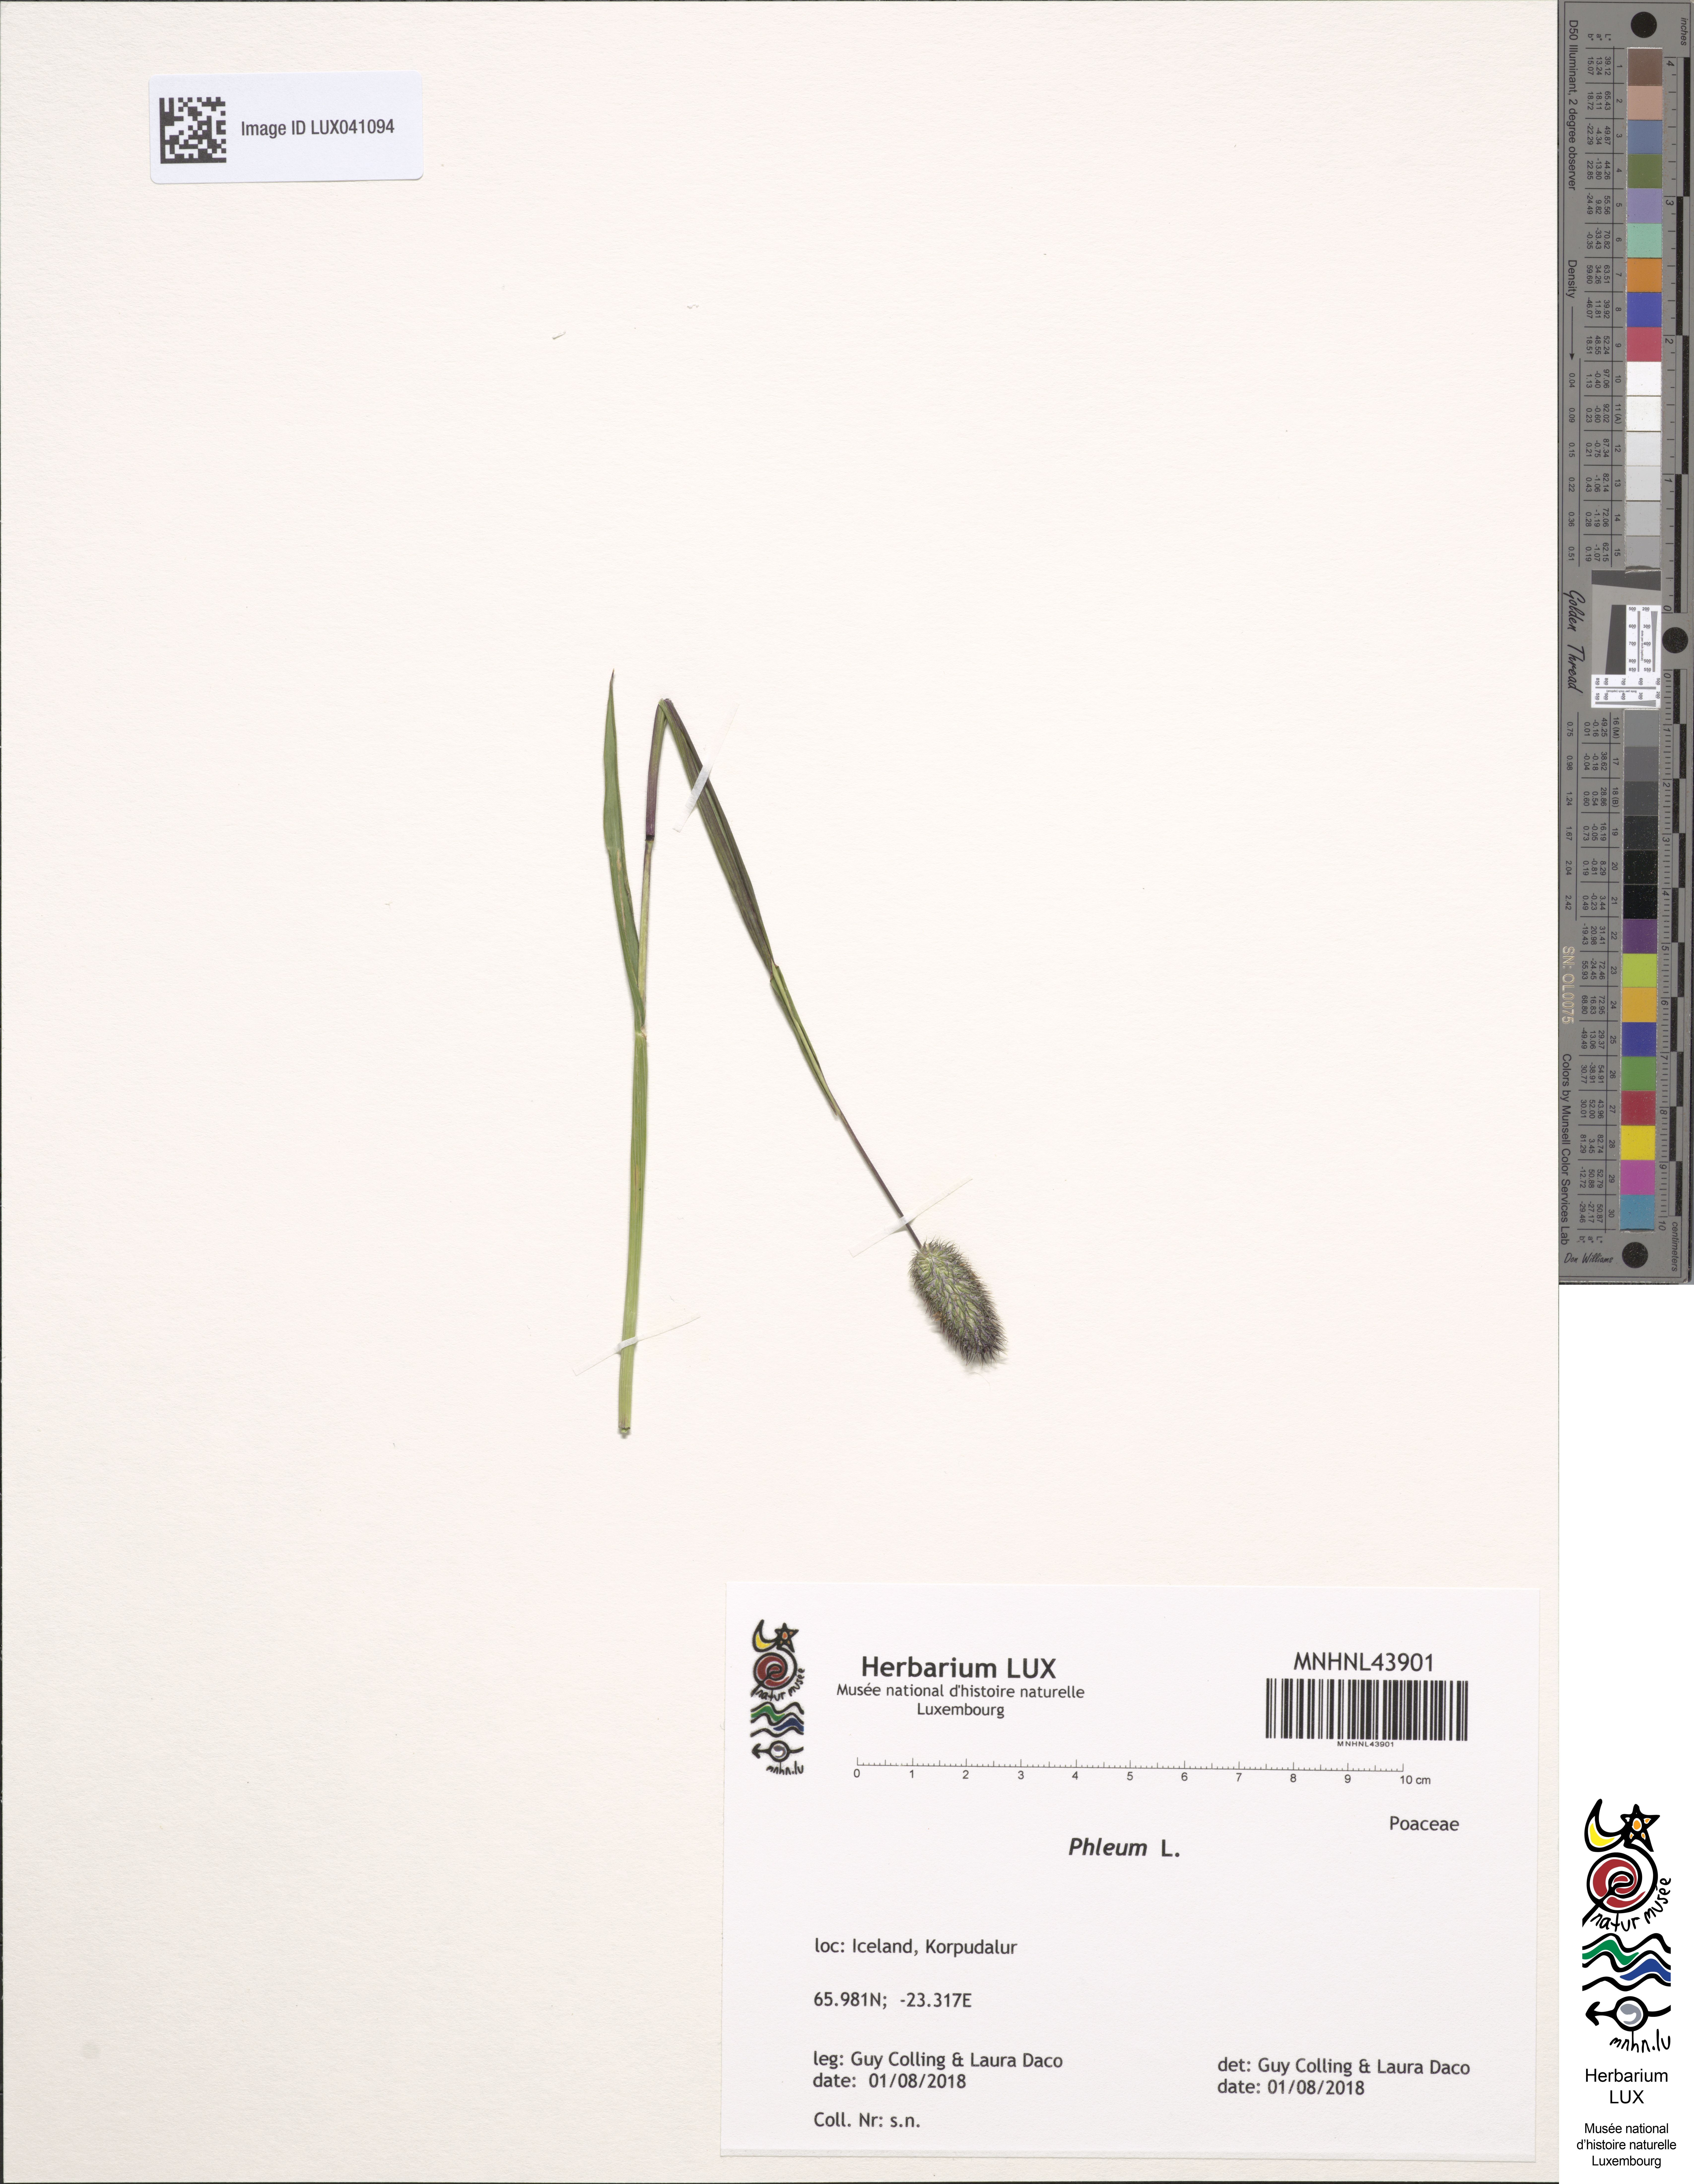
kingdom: Plantae
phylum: Tracheophyta
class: Liliopsida
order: Poales
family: Poaceae
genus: Phleum
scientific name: Phleum
